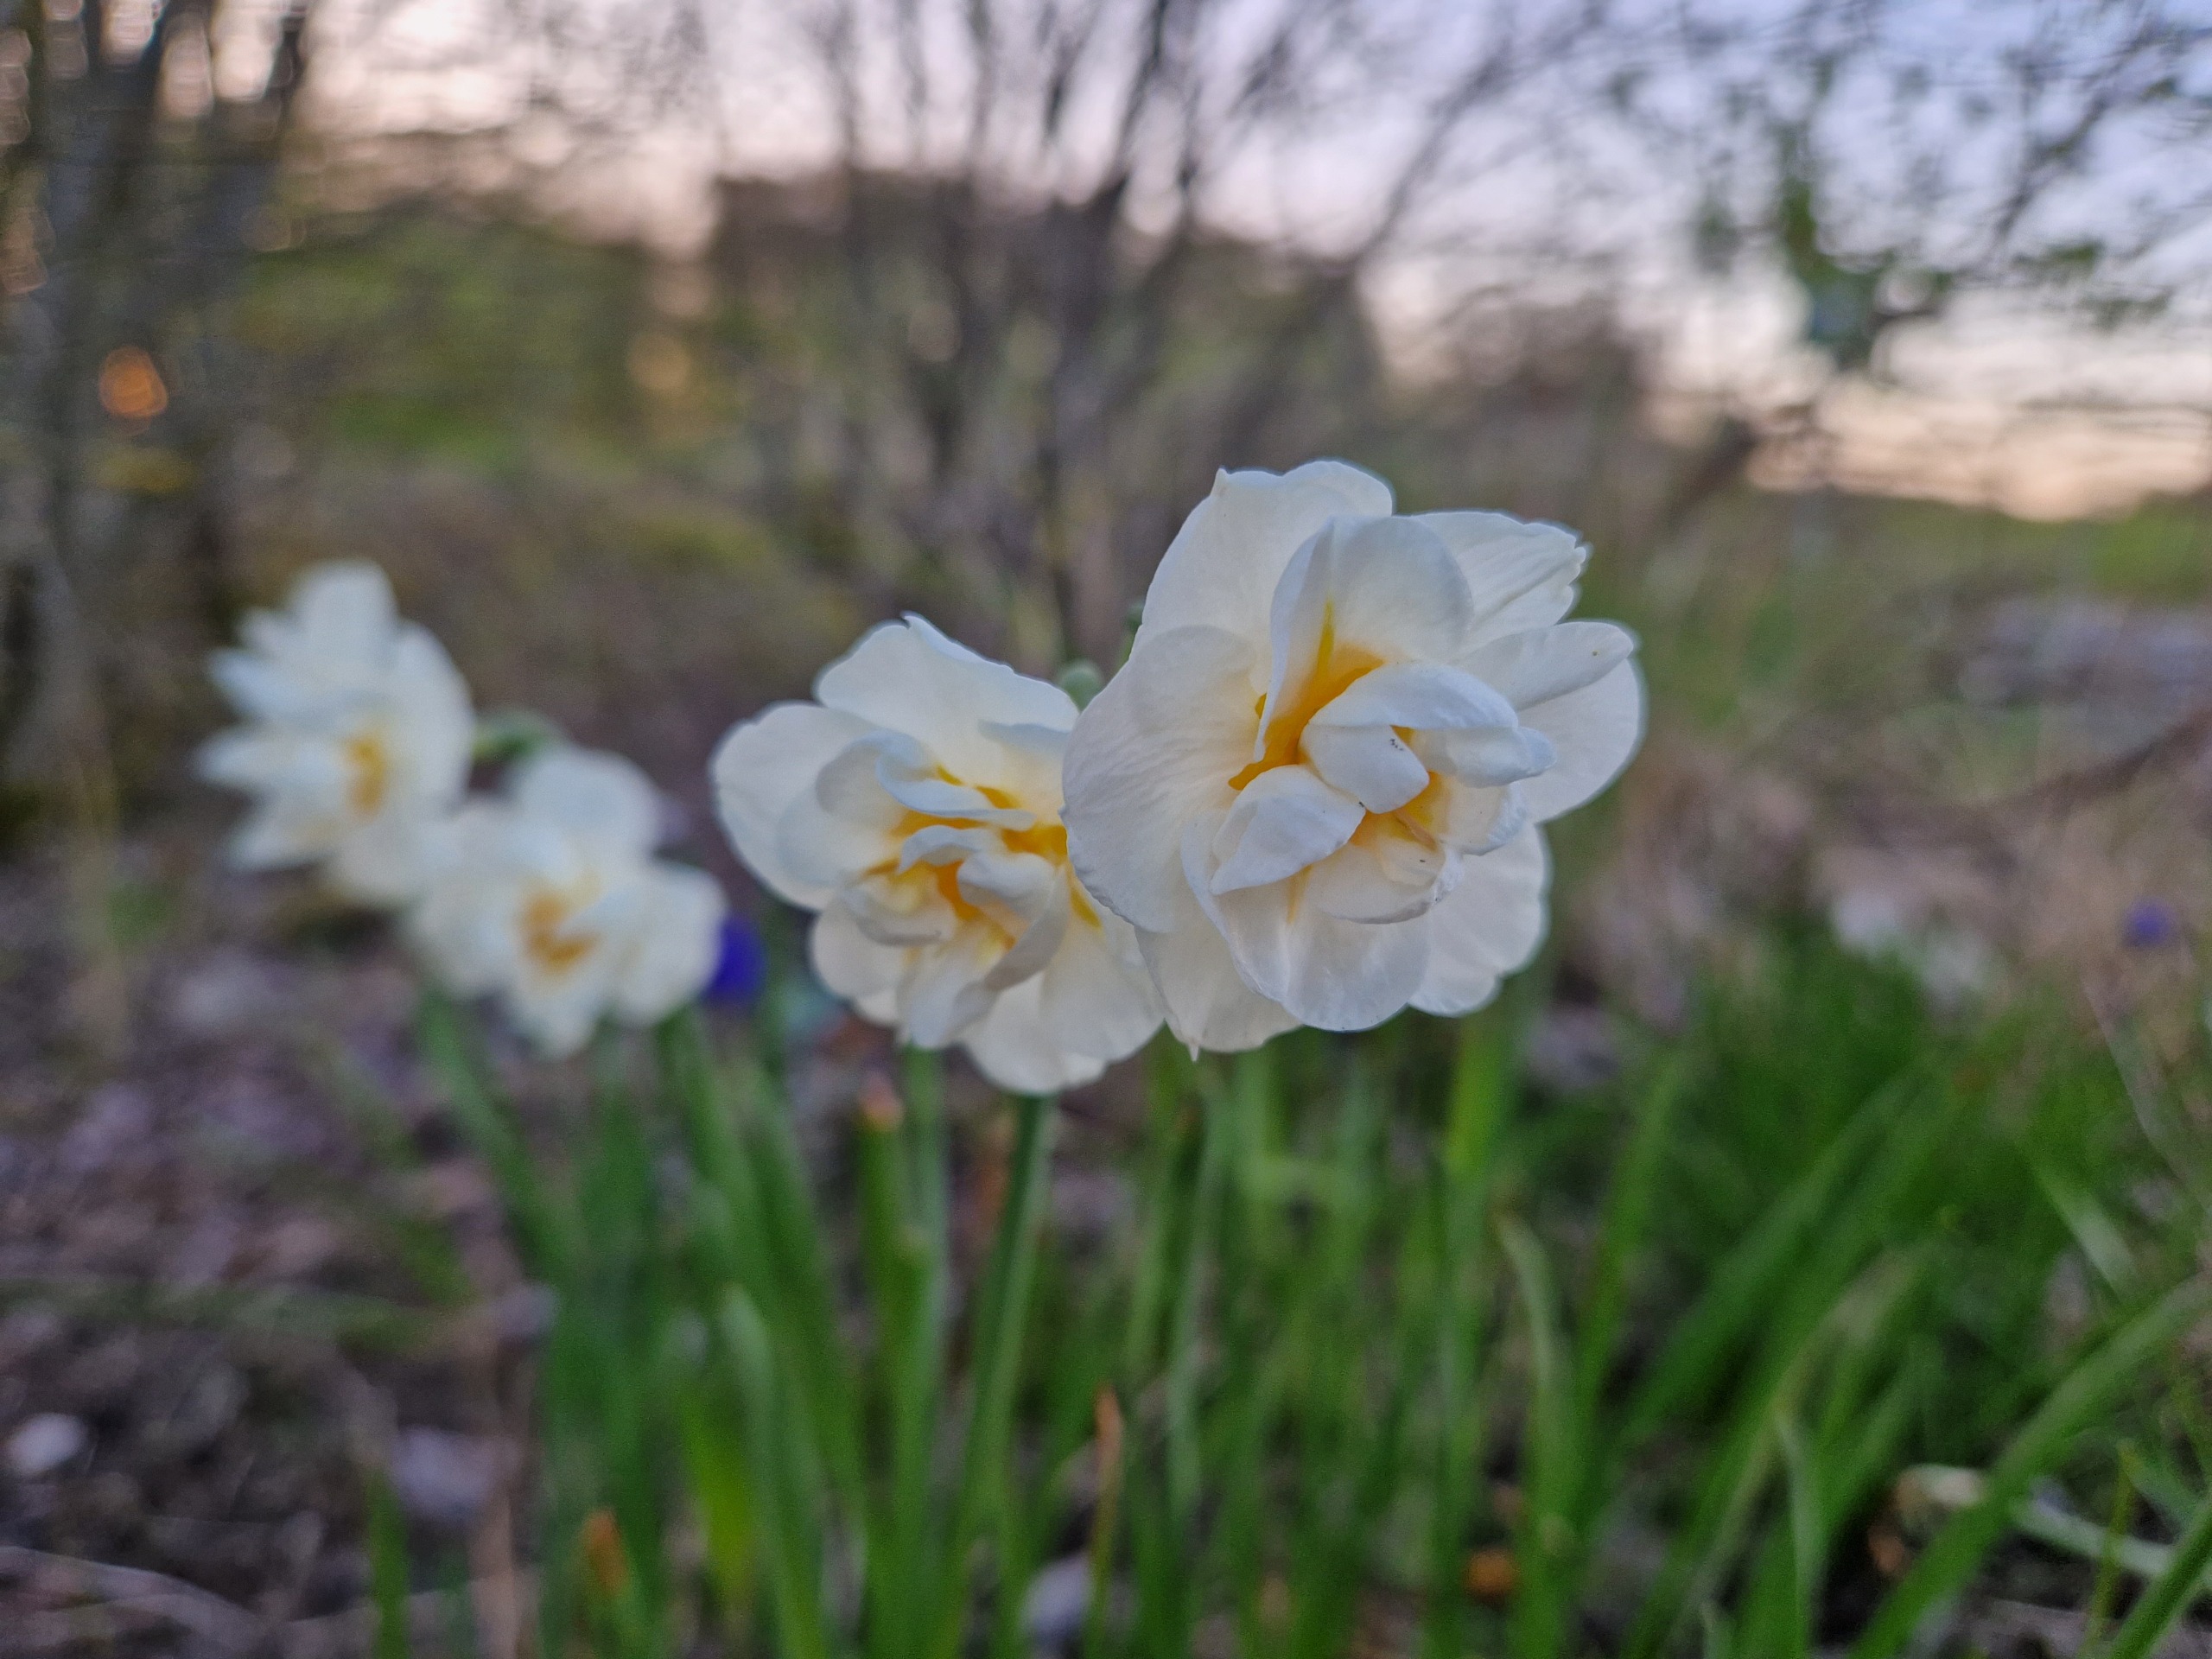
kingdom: Plantae
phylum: Tracheophyta
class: Liliopsida
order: Asparagales
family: Amaryllidaceae
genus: Narcissus
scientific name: Narcissus
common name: Narcisslægten
